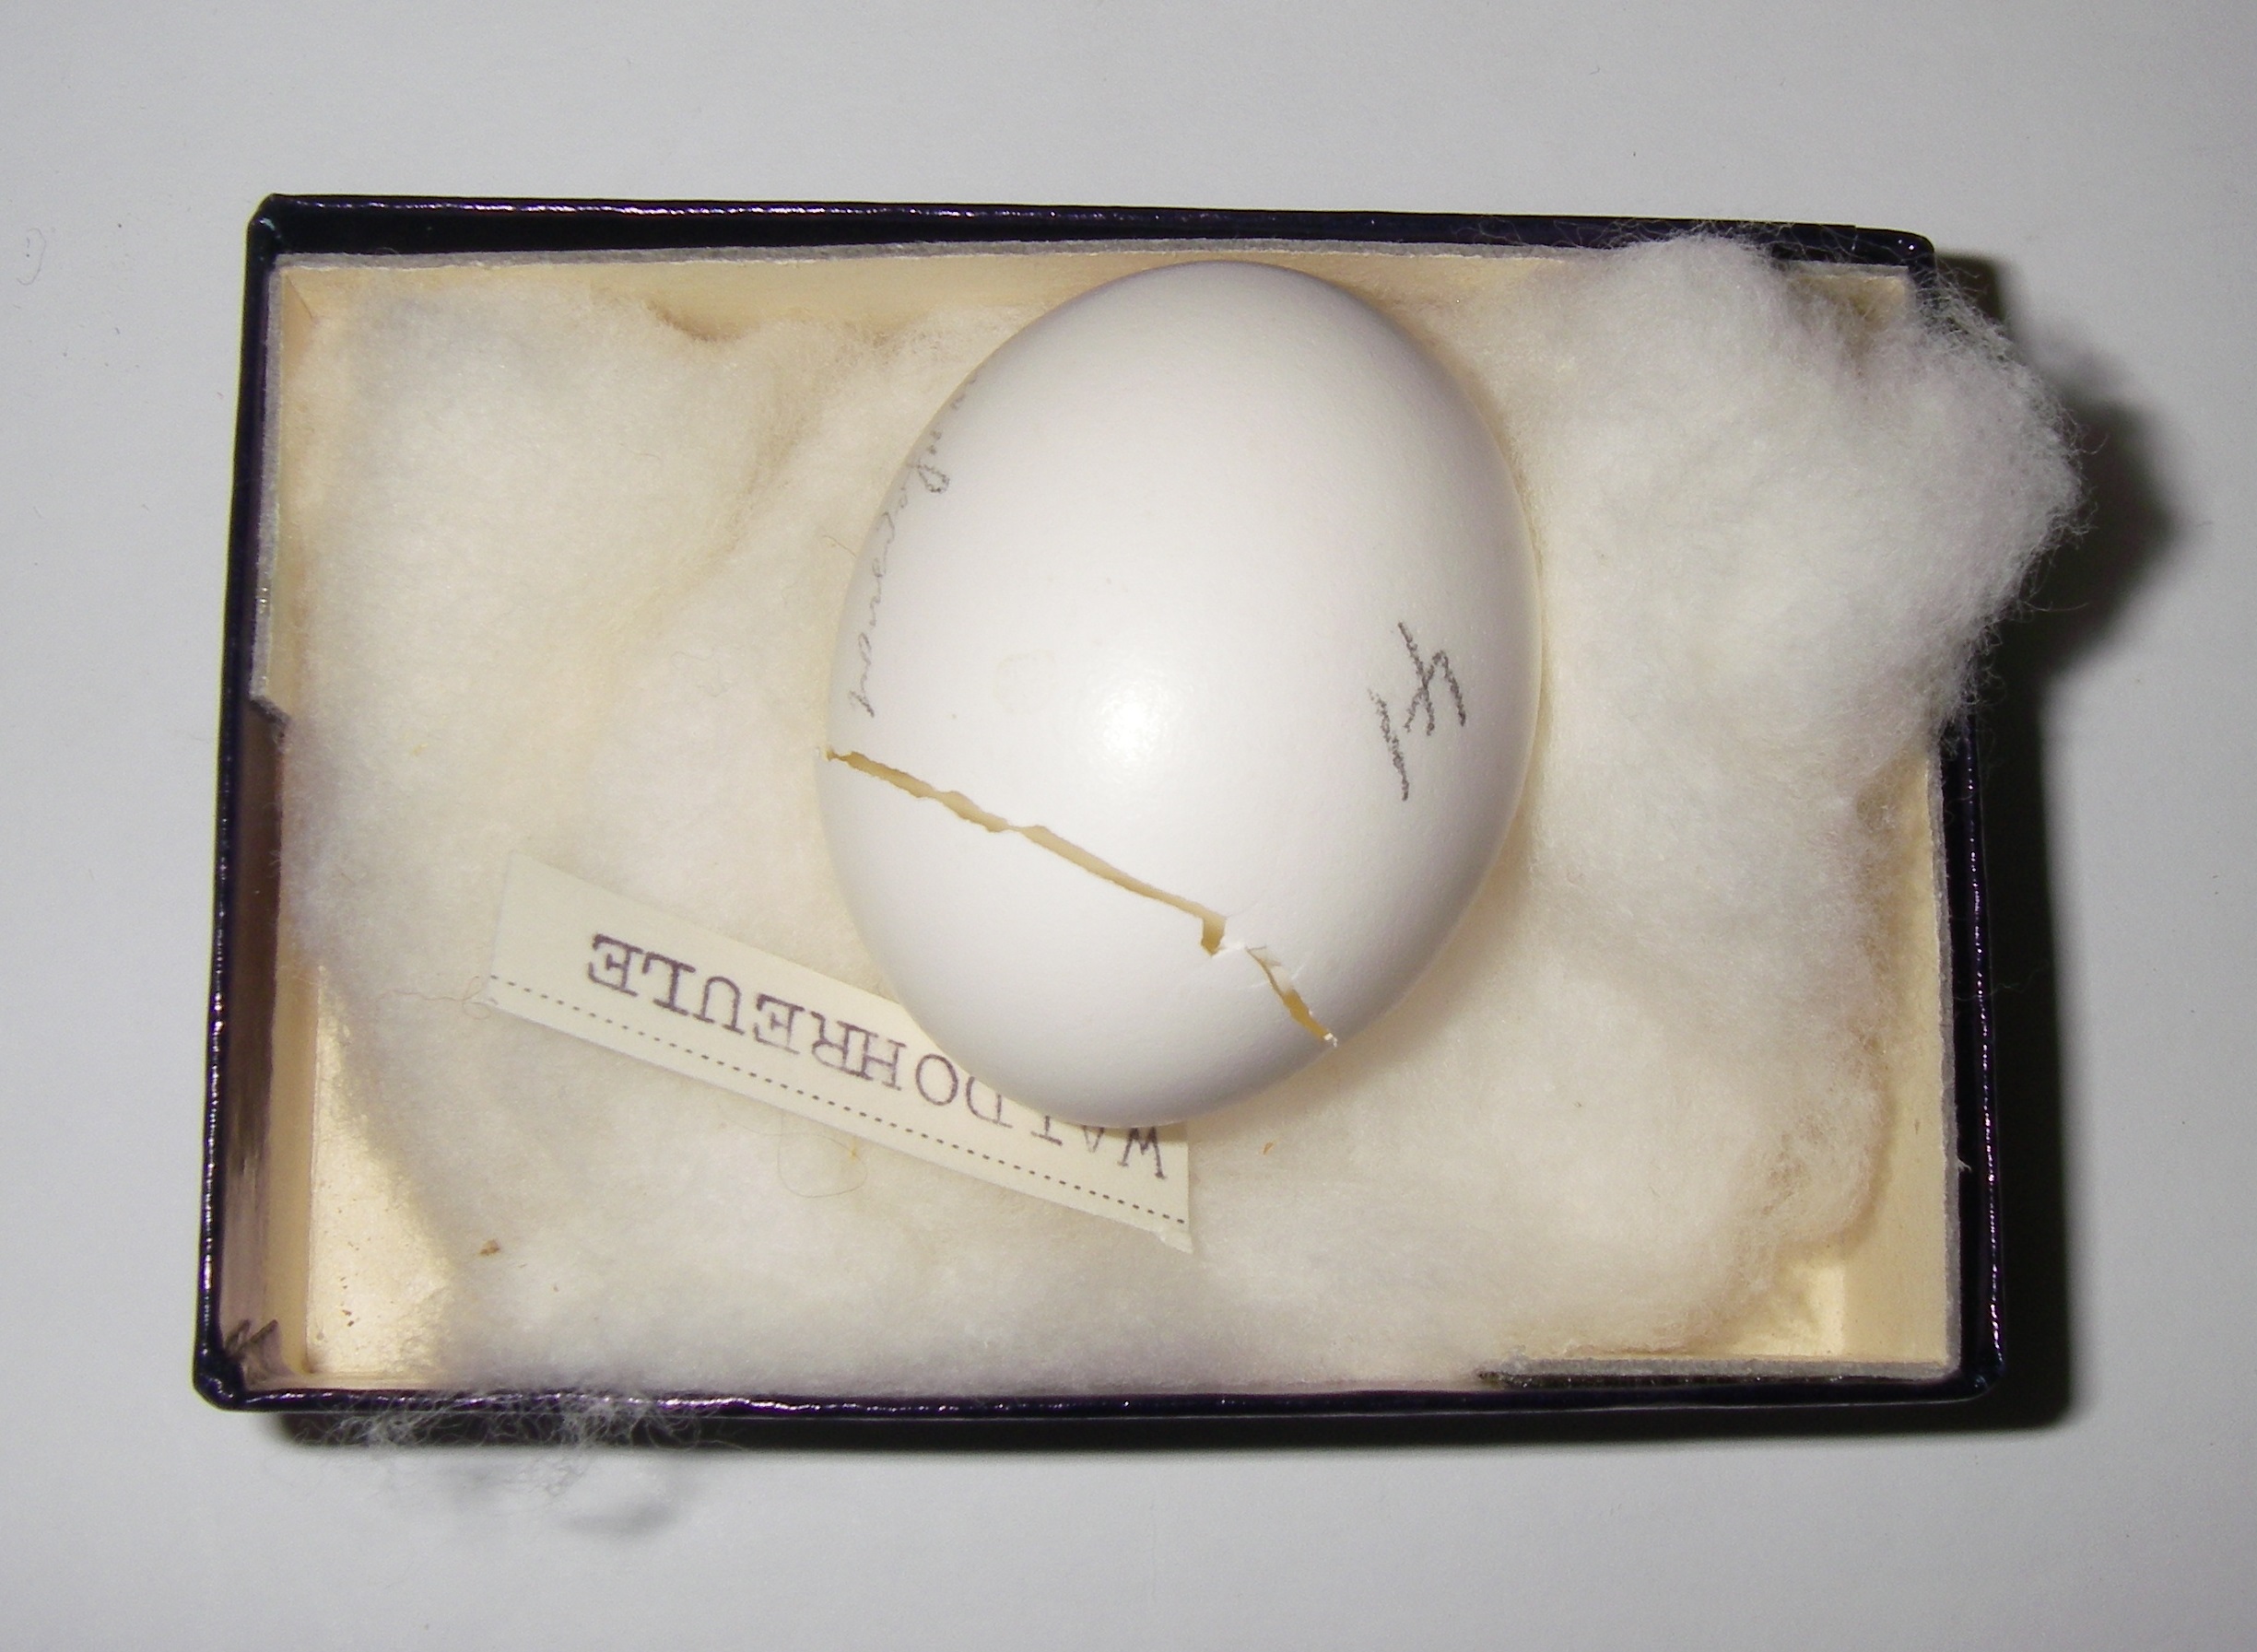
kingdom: Animalia
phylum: Chordata
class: Aves
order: Strigiformes
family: Strigidae
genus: Asio
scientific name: Asio otus
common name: Long-eared owl
